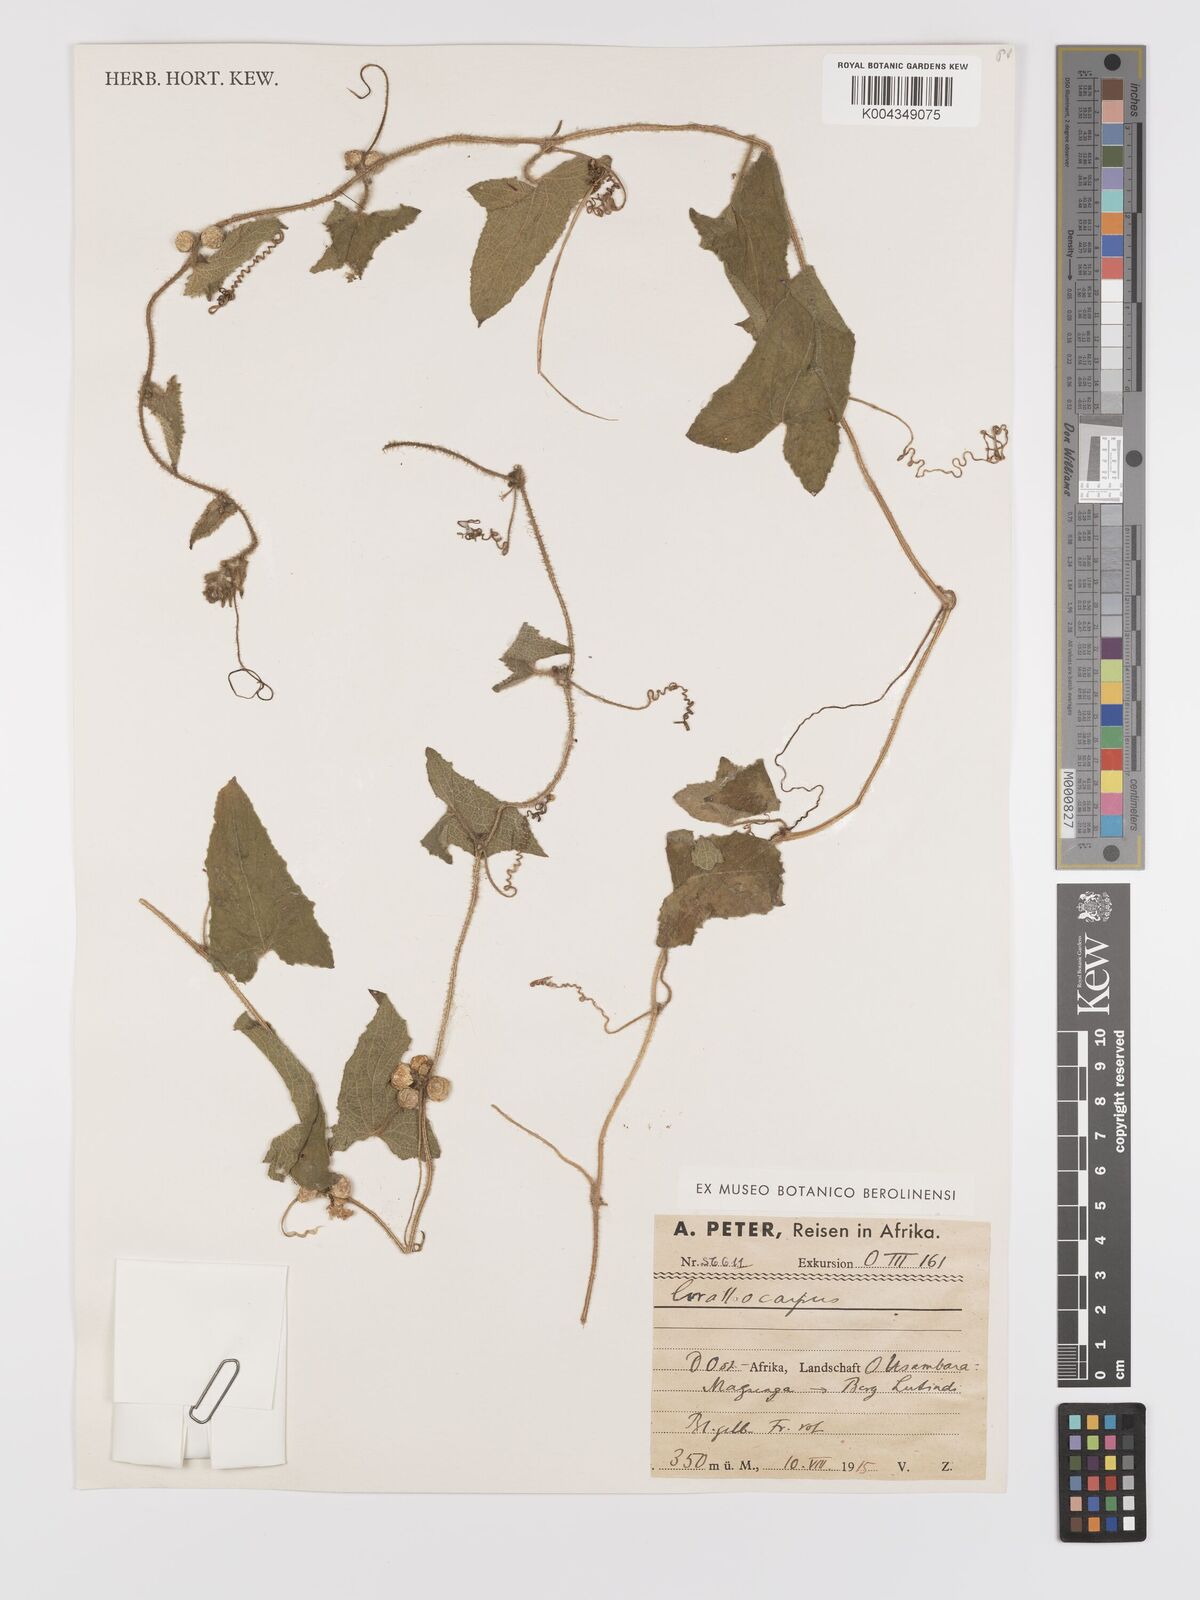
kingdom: Plantae
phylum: Tracheophyta
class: Magnoliopsida
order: Cucurbitales
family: Cucurbitaceae
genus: Cucumis
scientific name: Cucumis maderaspatanus
